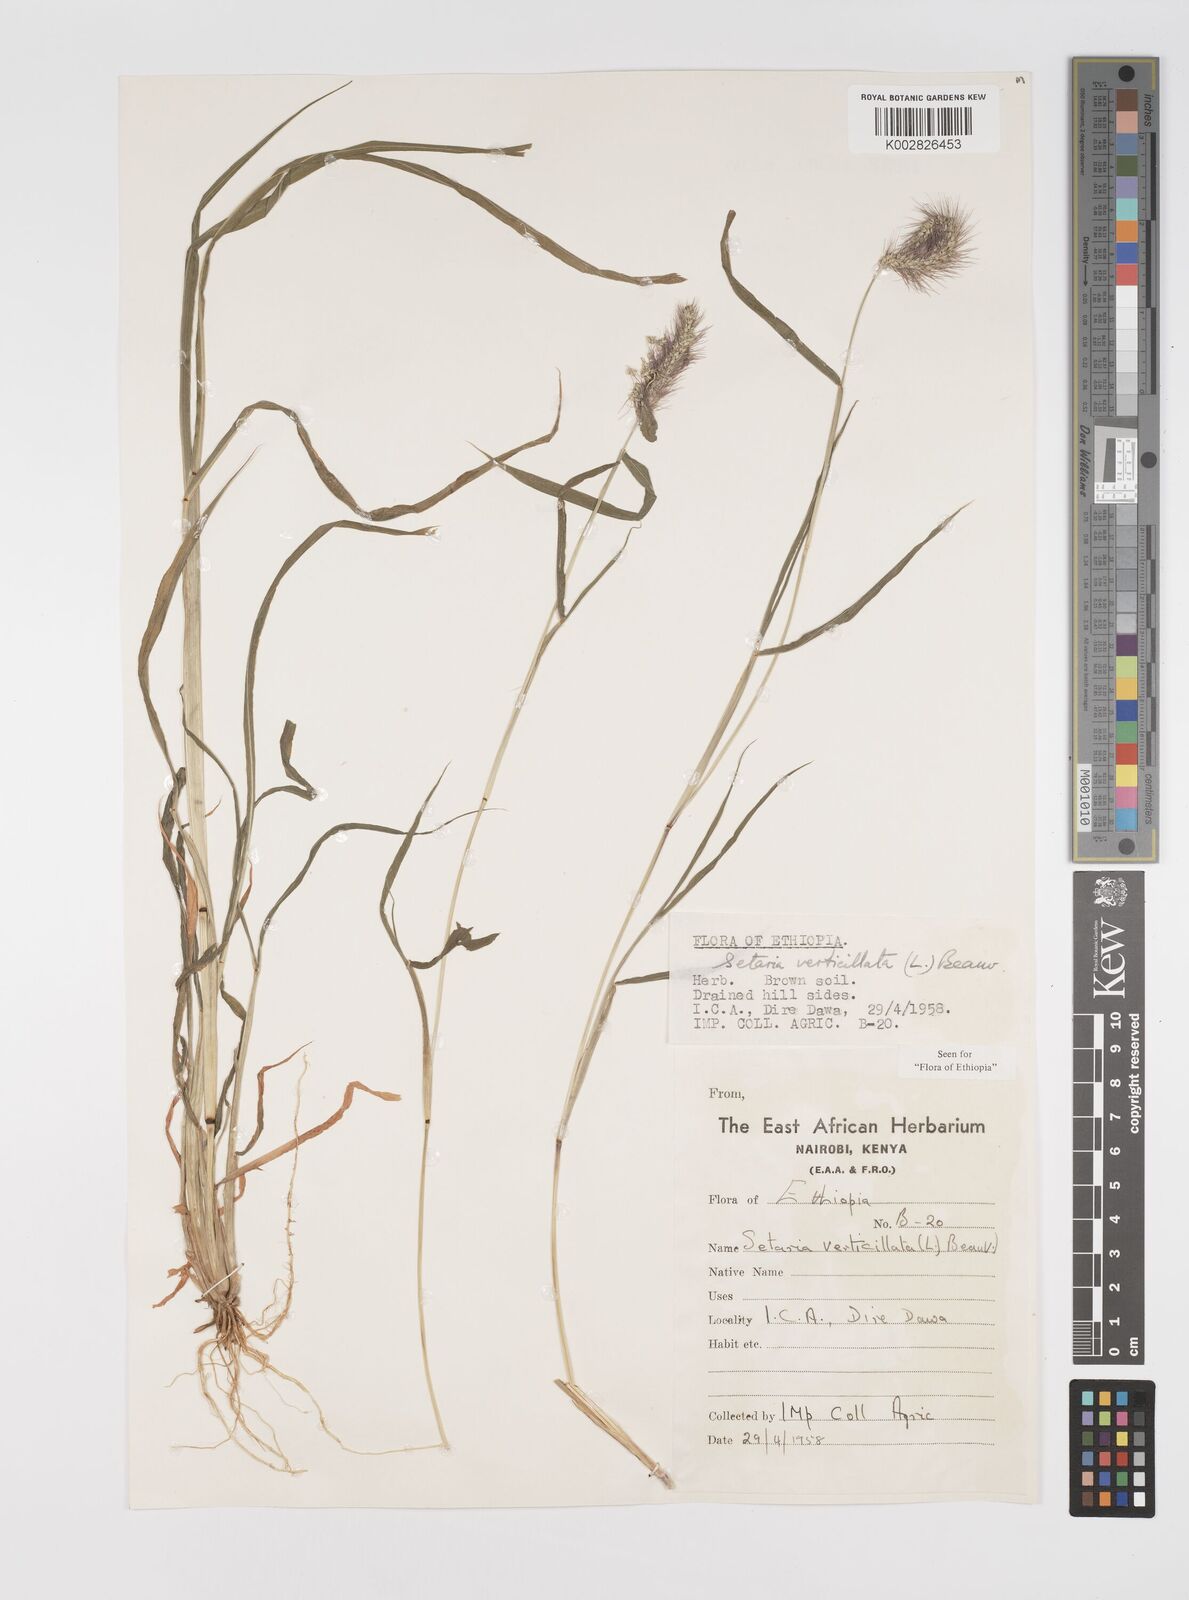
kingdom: Plantae
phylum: Tracheophyta
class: Liliopsida
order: Poales
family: Poaceae
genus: Setaria
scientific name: Setaria verticillata
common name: Hooked bristlegrass
